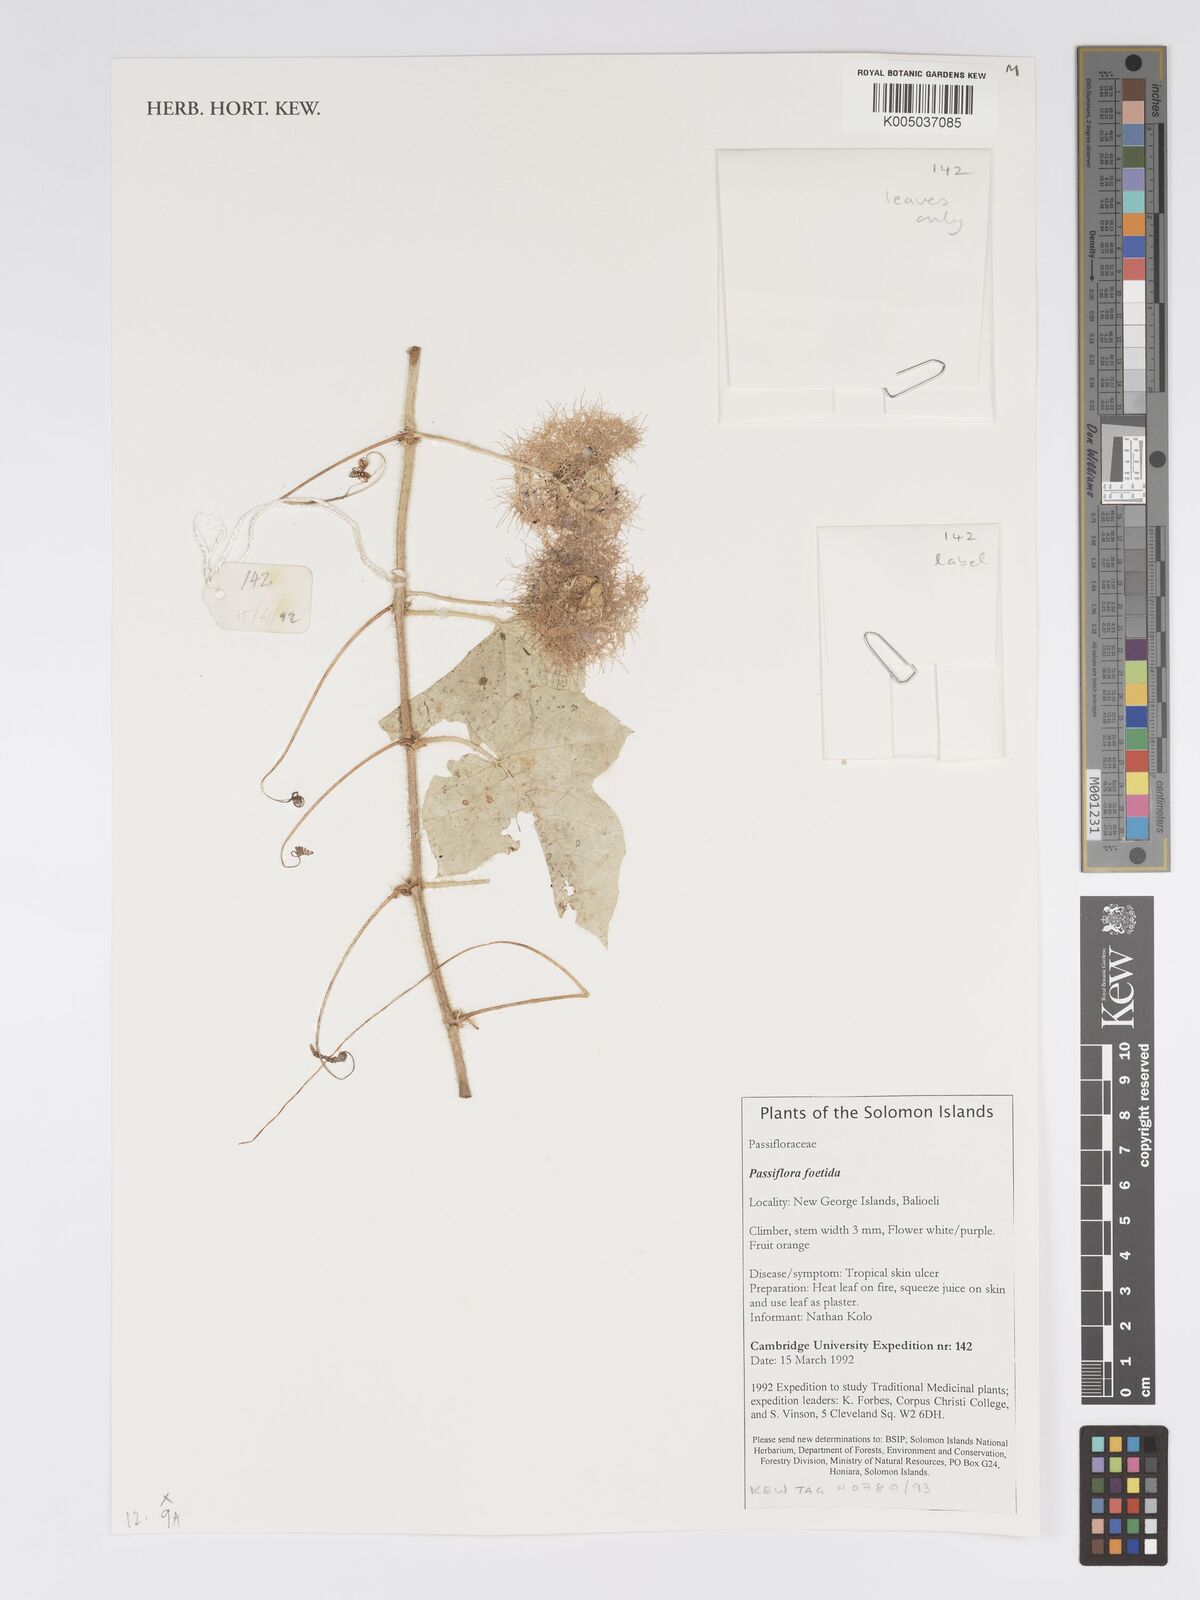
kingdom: Plantae
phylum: Tracheophyta
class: Magnoliopsida
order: Malpighiales
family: Passifloraceae
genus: Passiflora
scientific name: Passiflora foetida
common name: Fetid passionflower
